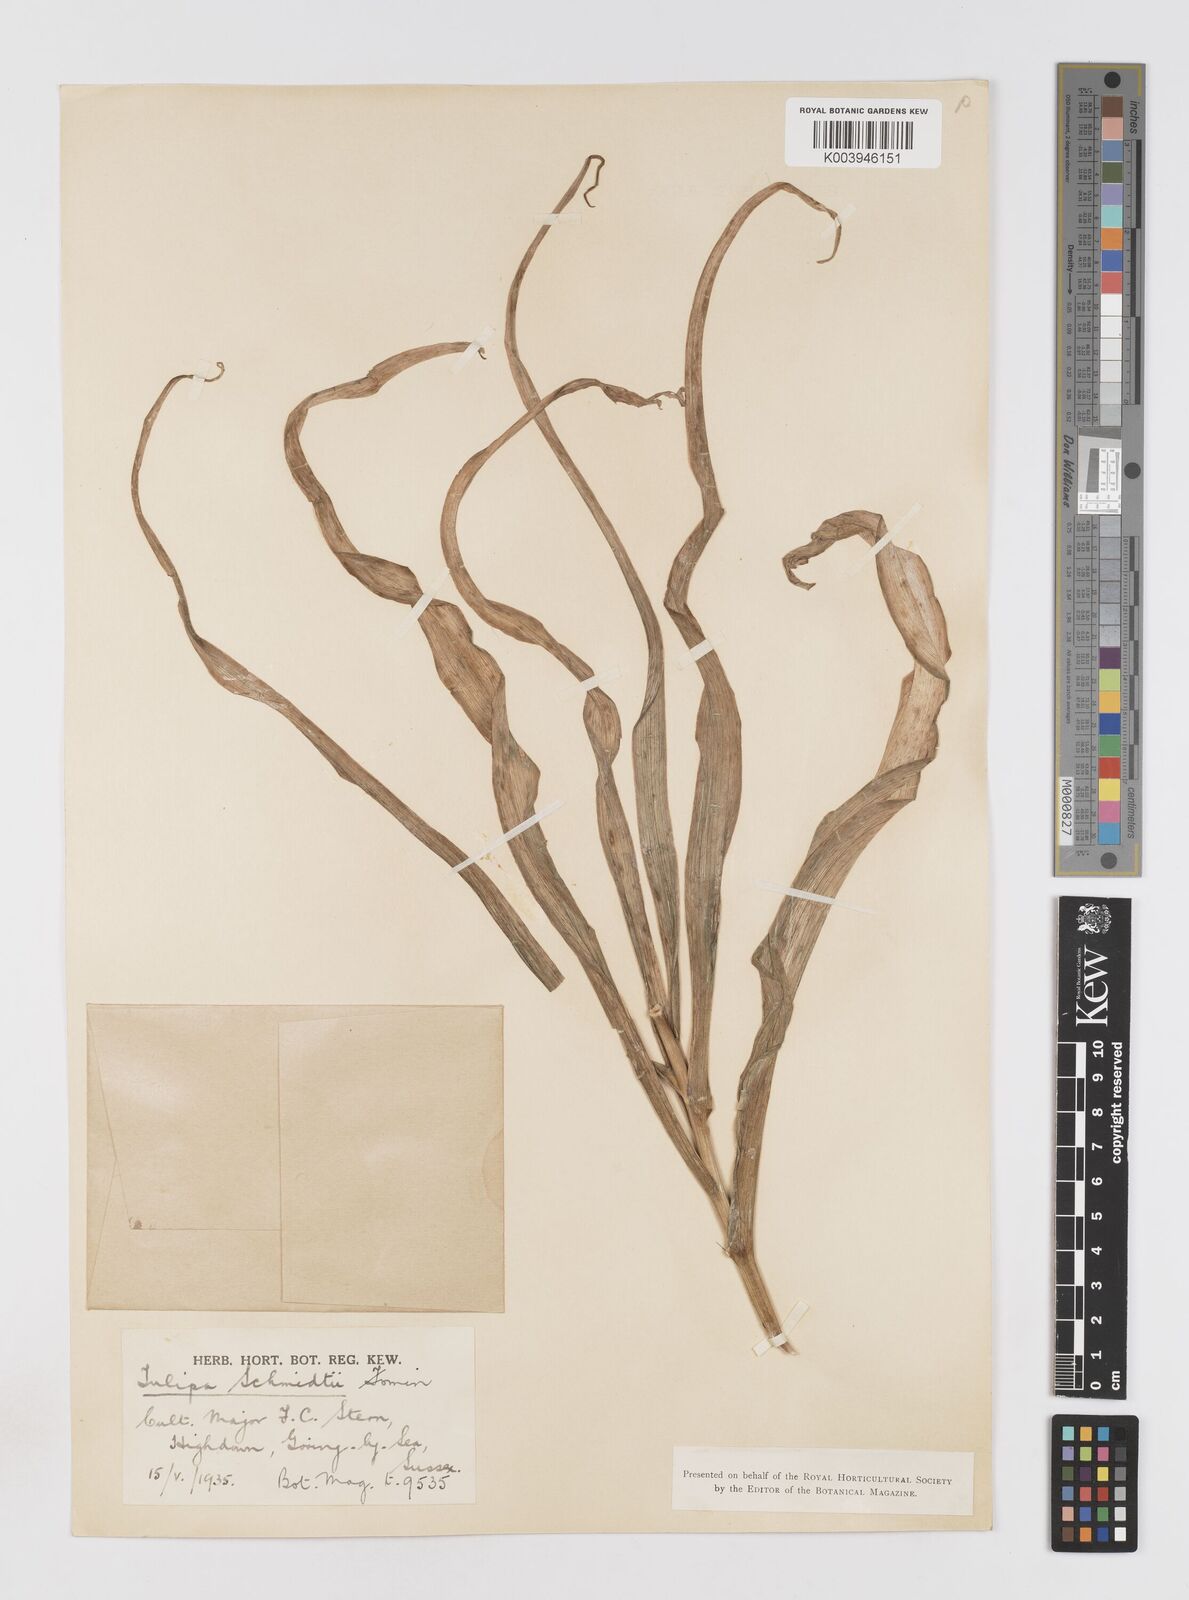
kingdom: Plantae
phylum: Tracheophyta
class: Liliopsida
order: Liliales
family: Liliaceae
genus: Tulipa
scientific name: Tulipa schmidtii
